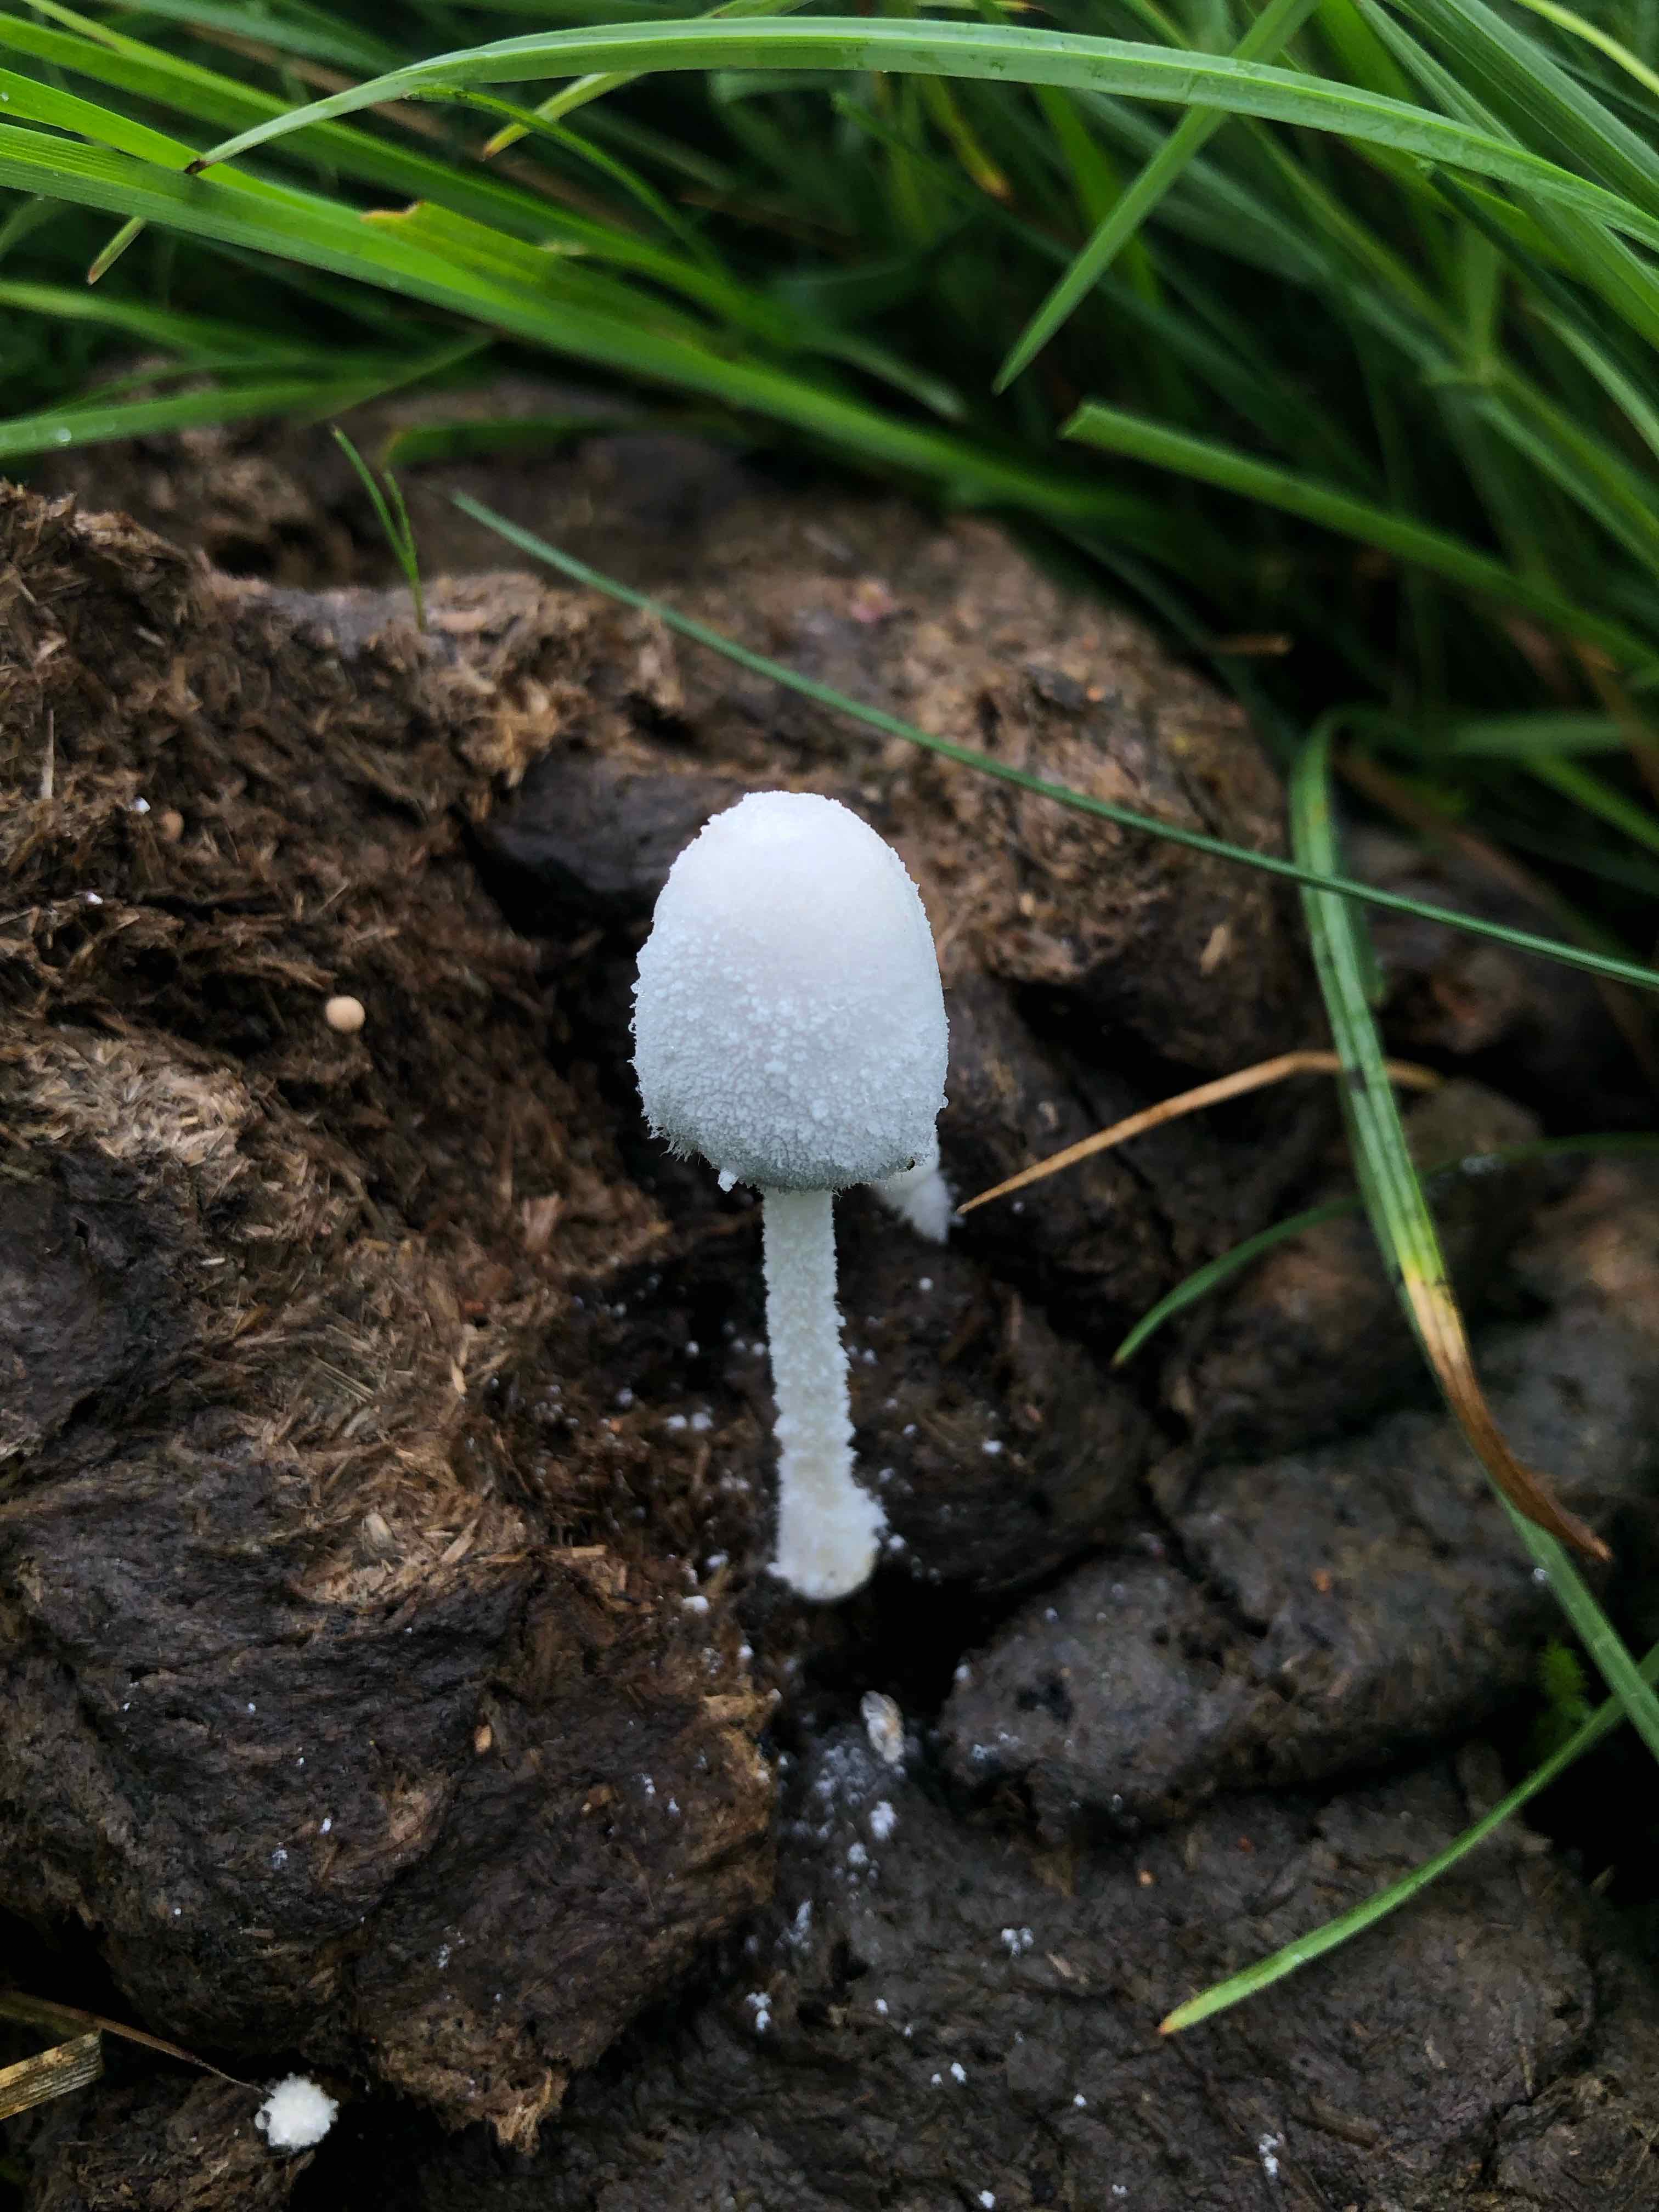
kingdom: Fungi
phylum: Basidiomycota
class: Agaricomycetes
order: Agaricales
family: Psathyrellaceae
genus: Coprinopsis
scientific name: Coprinopsis nivea
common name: snehvid blækhat
